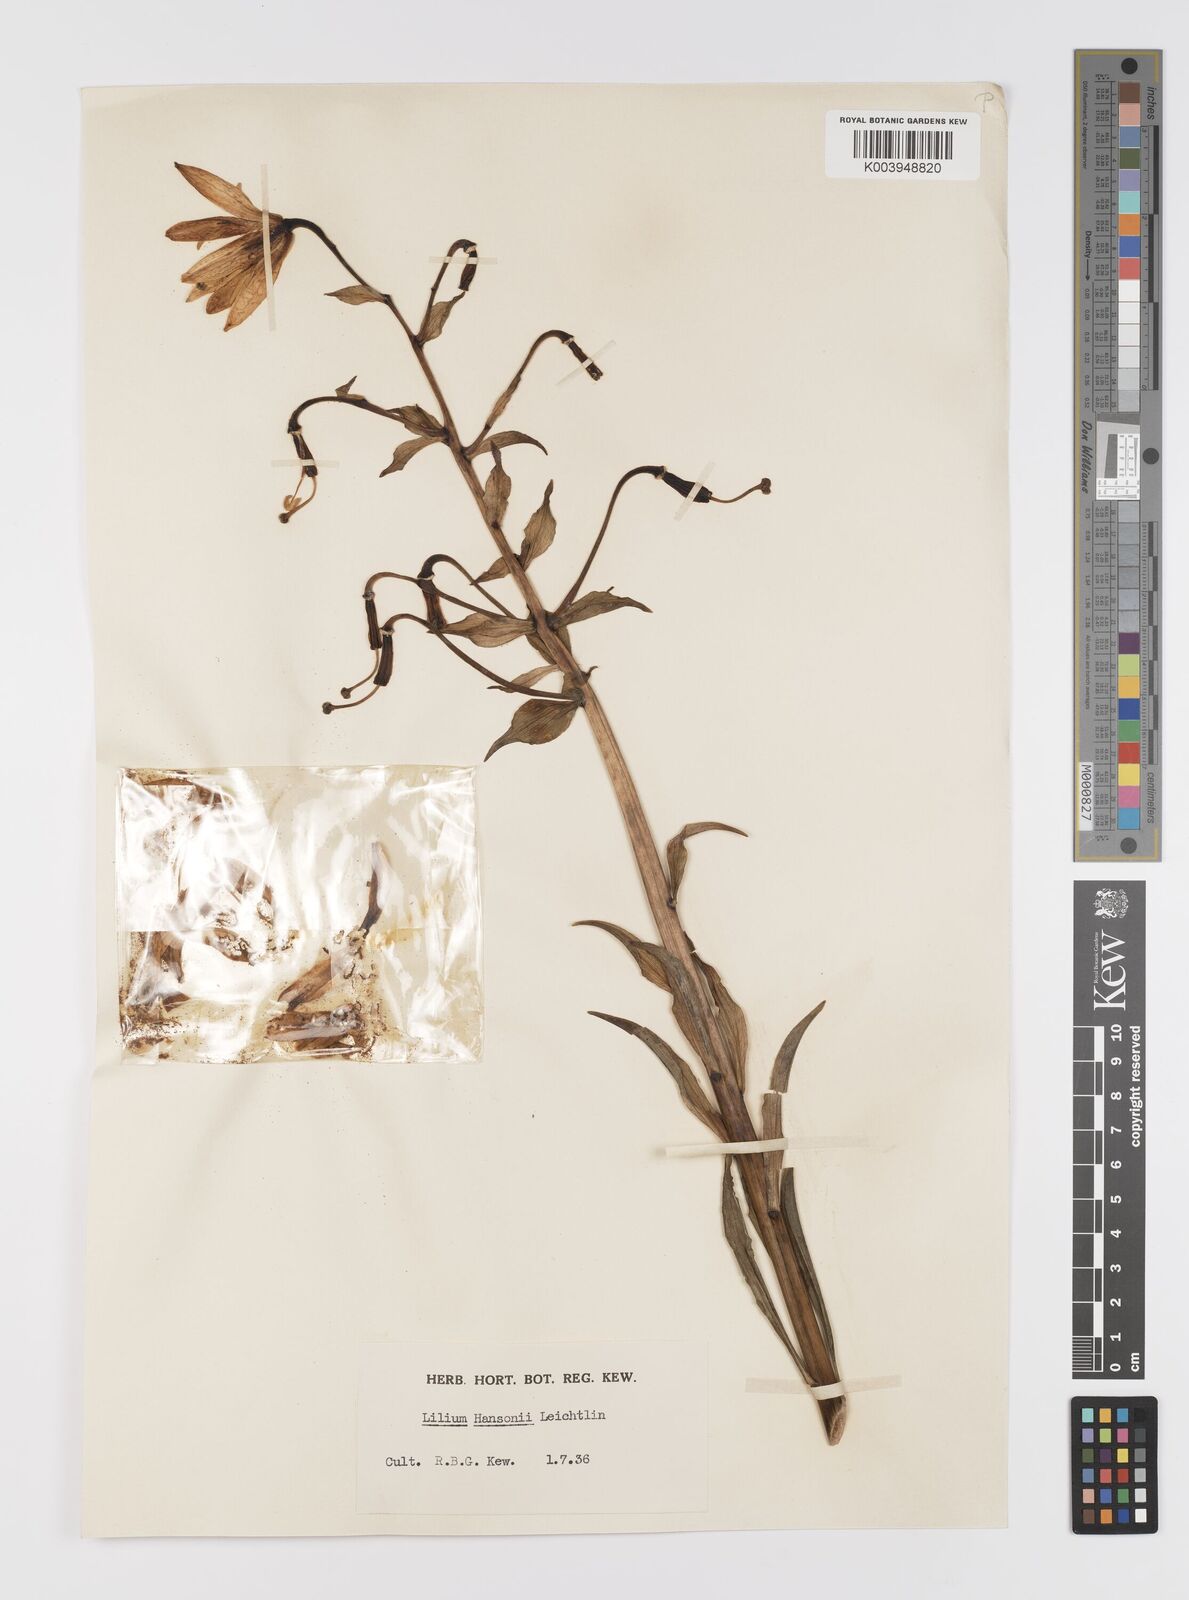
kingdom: Plantae
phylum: Tracheophyta
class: Liliopsida
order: Liliales
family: Liliaceae
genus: Lilium
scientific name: Lilium hansonii
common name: Hanson's lily
